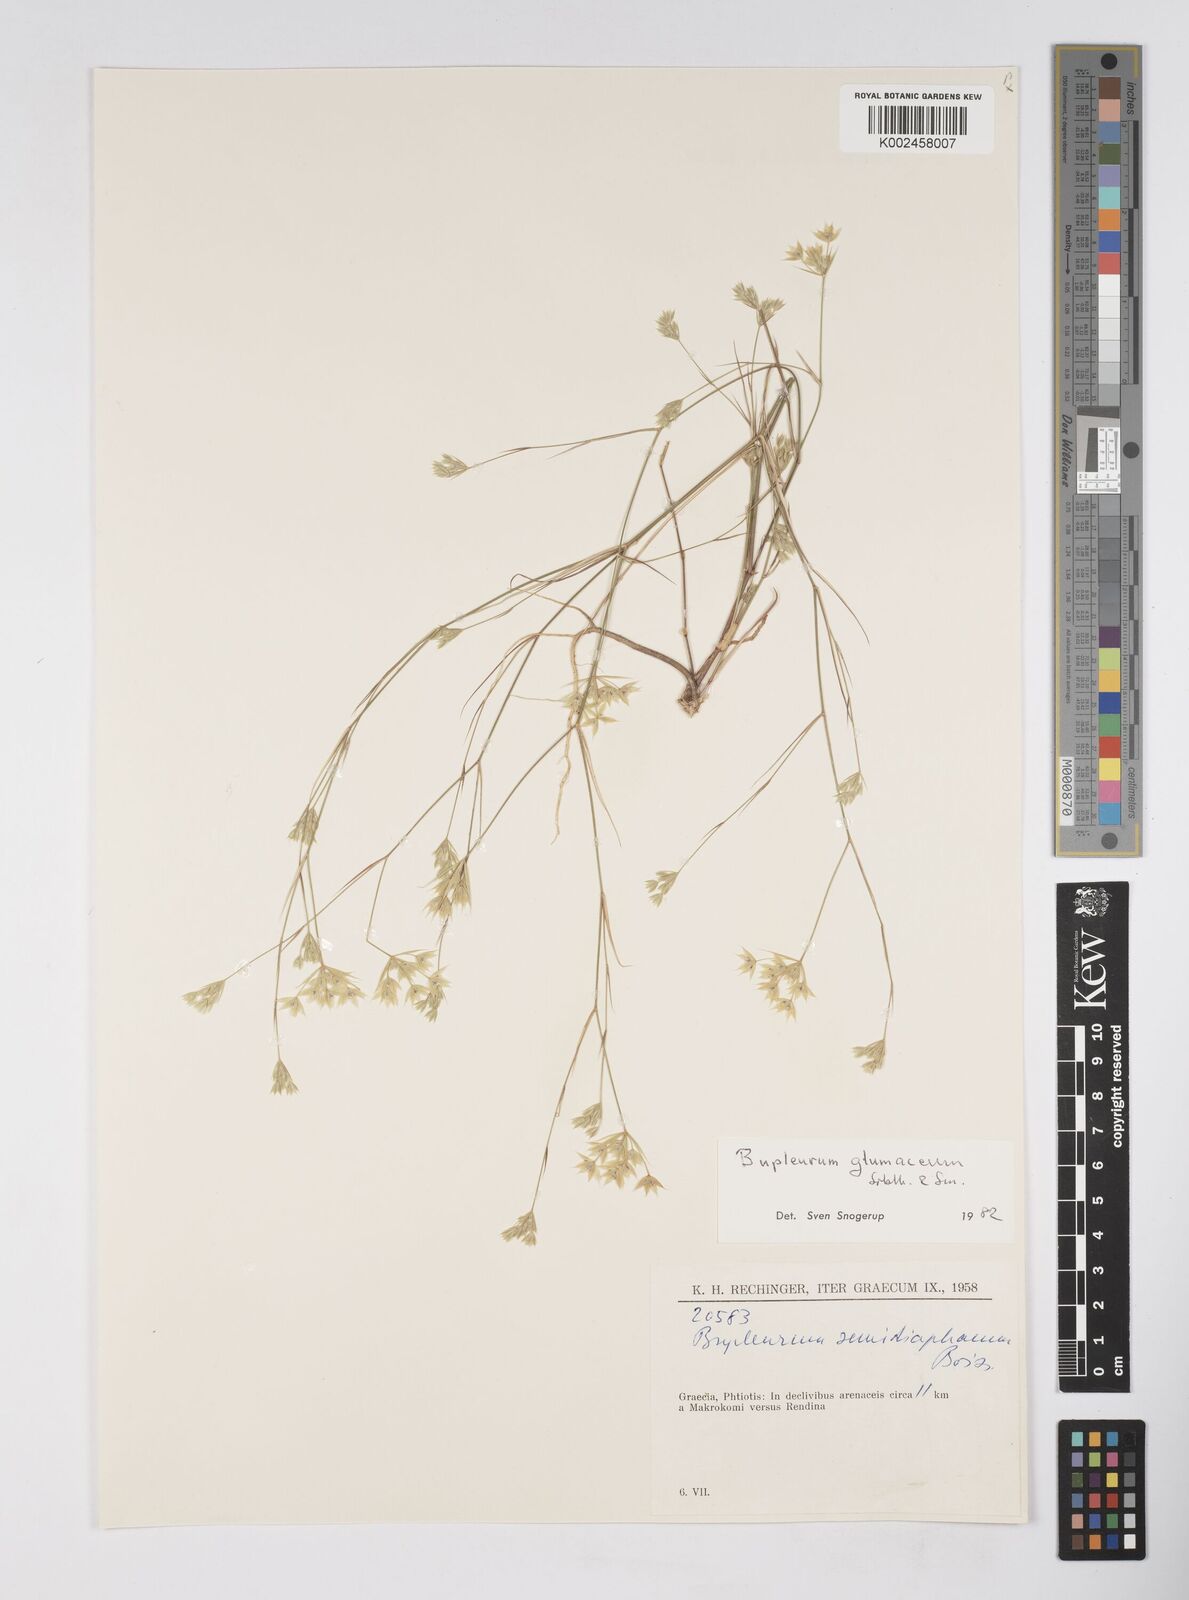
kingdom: Plantae
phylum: Tracheophyta
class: Magnoliopsida
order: Apiales
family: Apiaceae
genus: Bupleurum
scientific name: Bupleurum glumaceum
